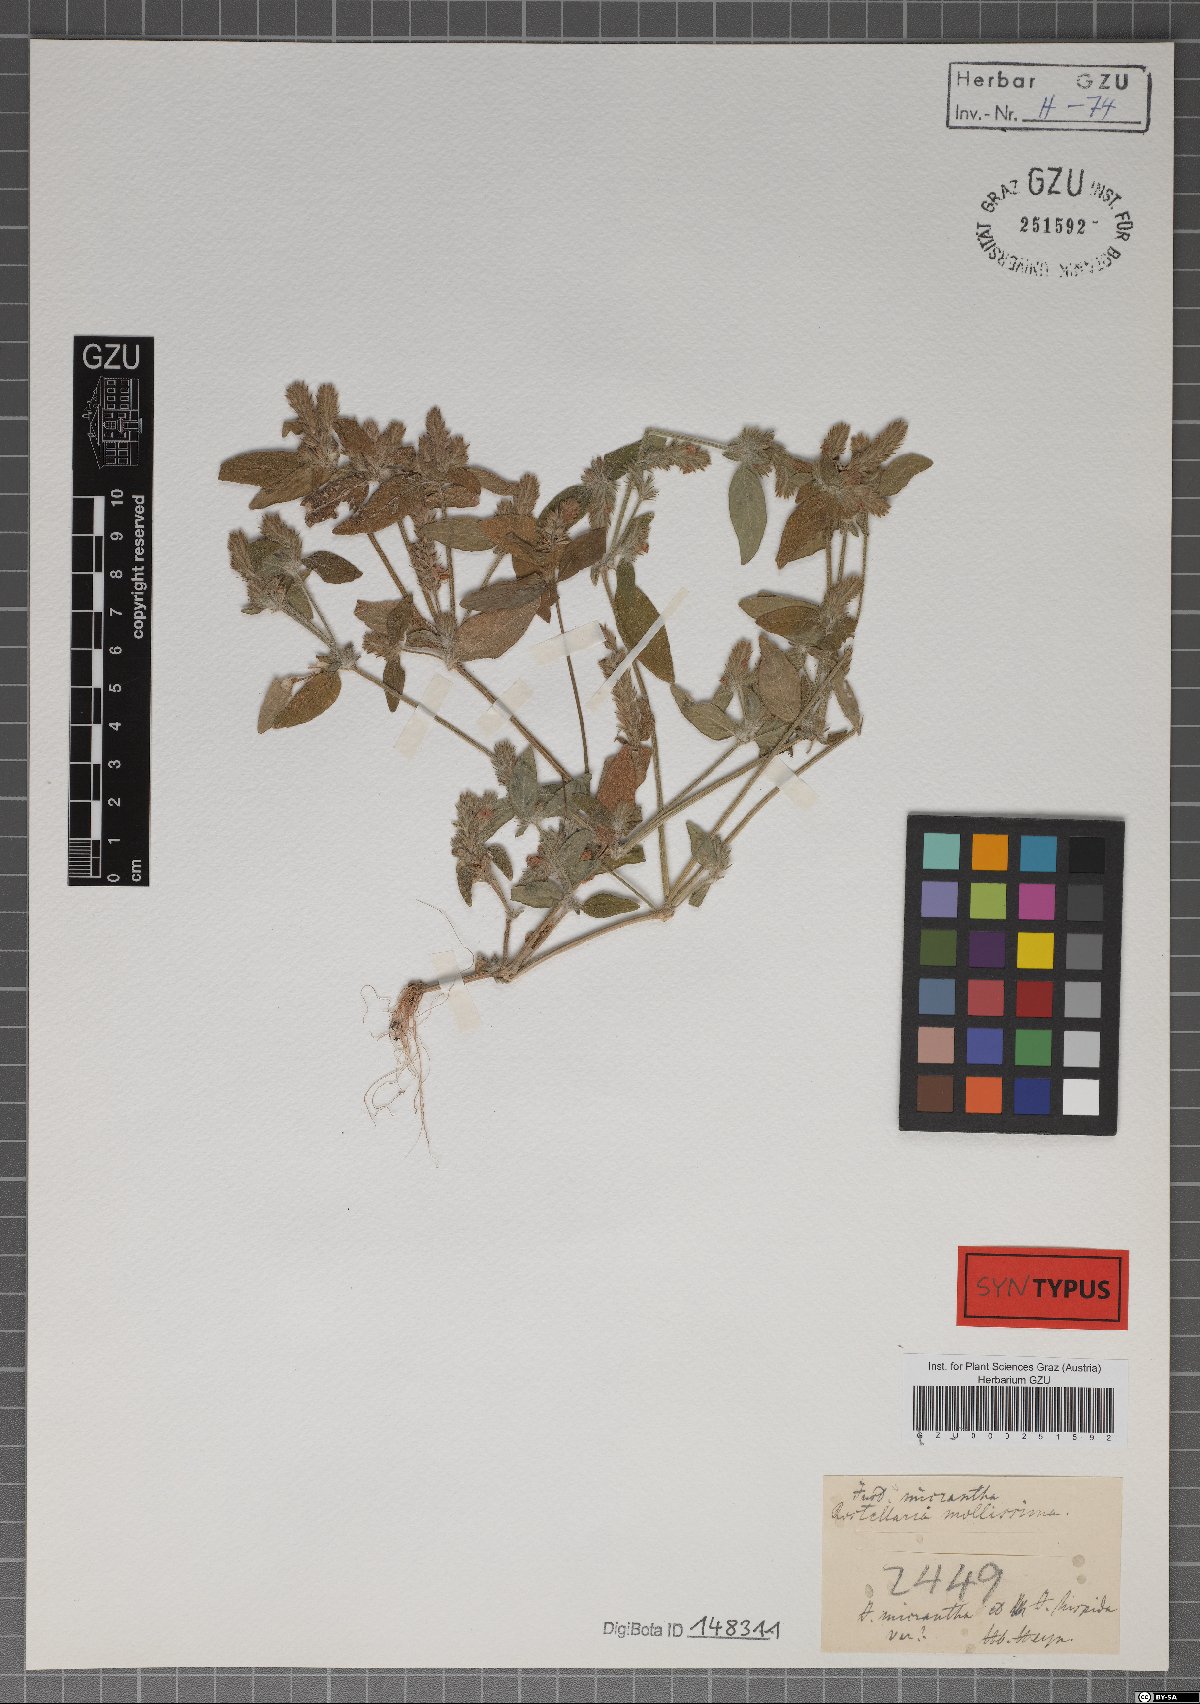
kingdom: Plantae
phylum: Tracheophyta
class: Magnoliopsida
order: Lamiales
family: Acanthaceae
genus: Rostellularia
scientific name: Rostellularia mollissima
